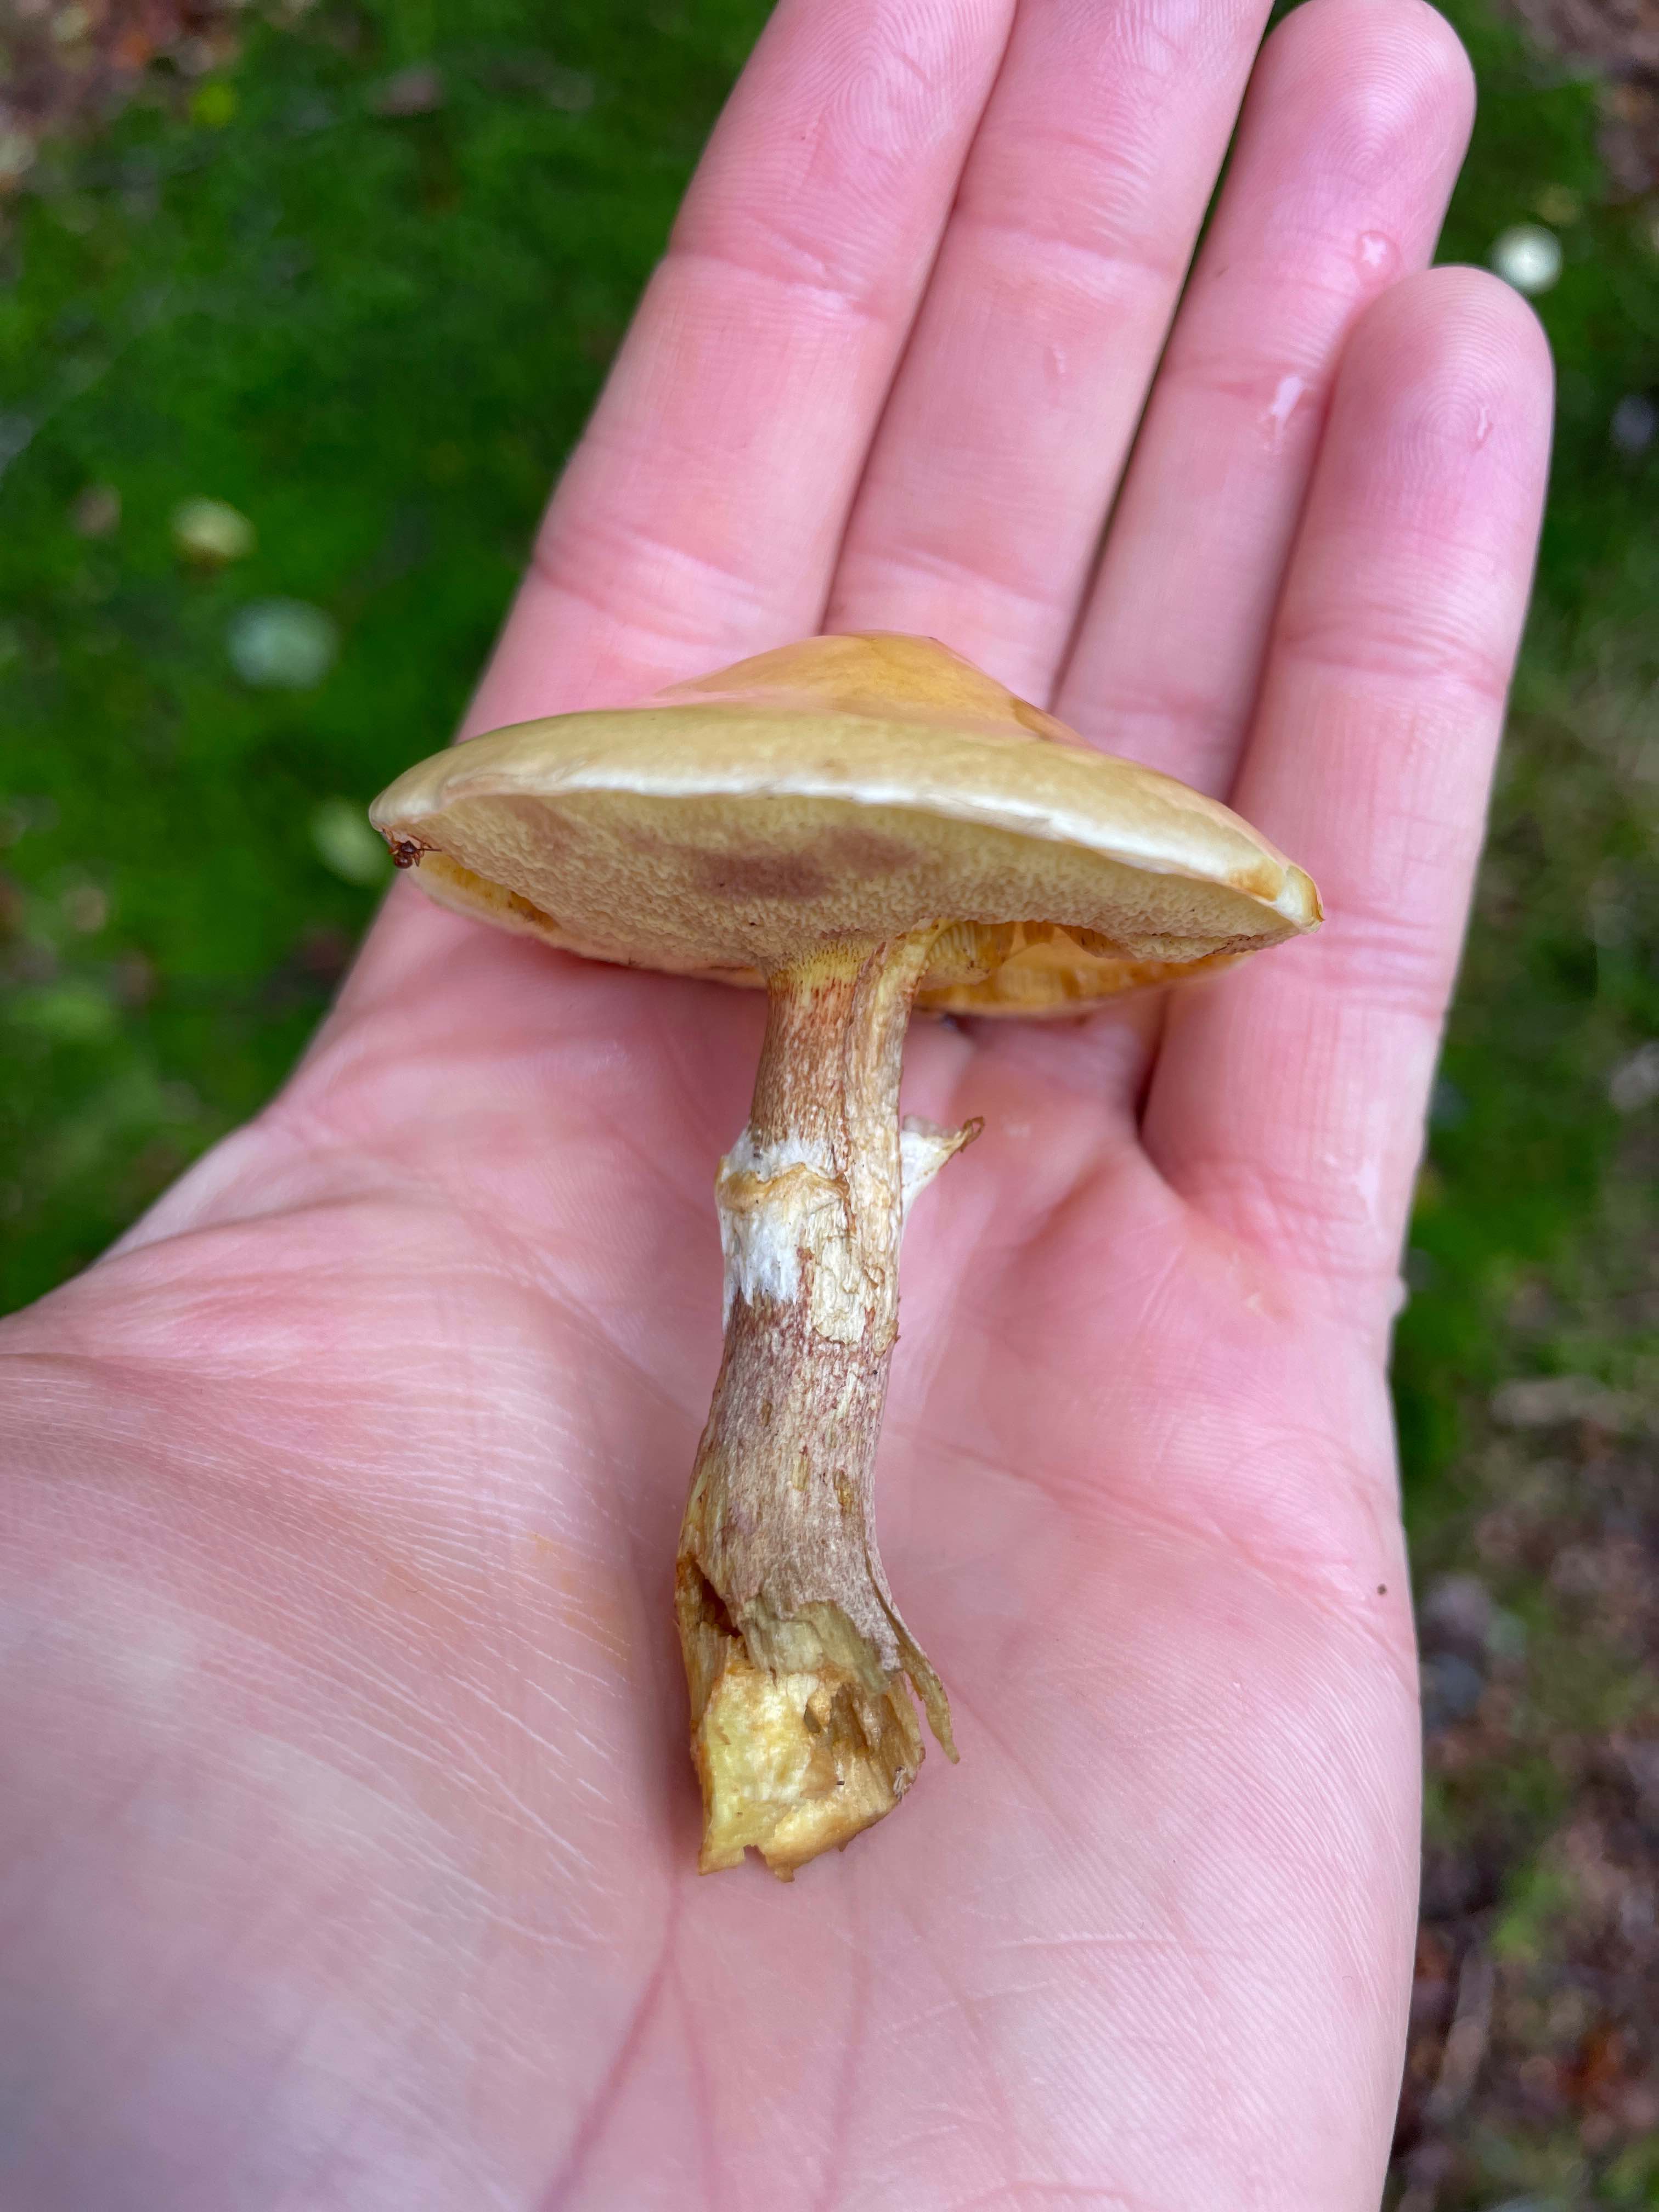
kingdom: Fungi
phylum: Basidiomycota
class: Agaricomycetes
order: Boletales
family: Suillaceae
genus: Suillus
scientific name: Suillus grevillei
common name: lærke-slimrørhat
